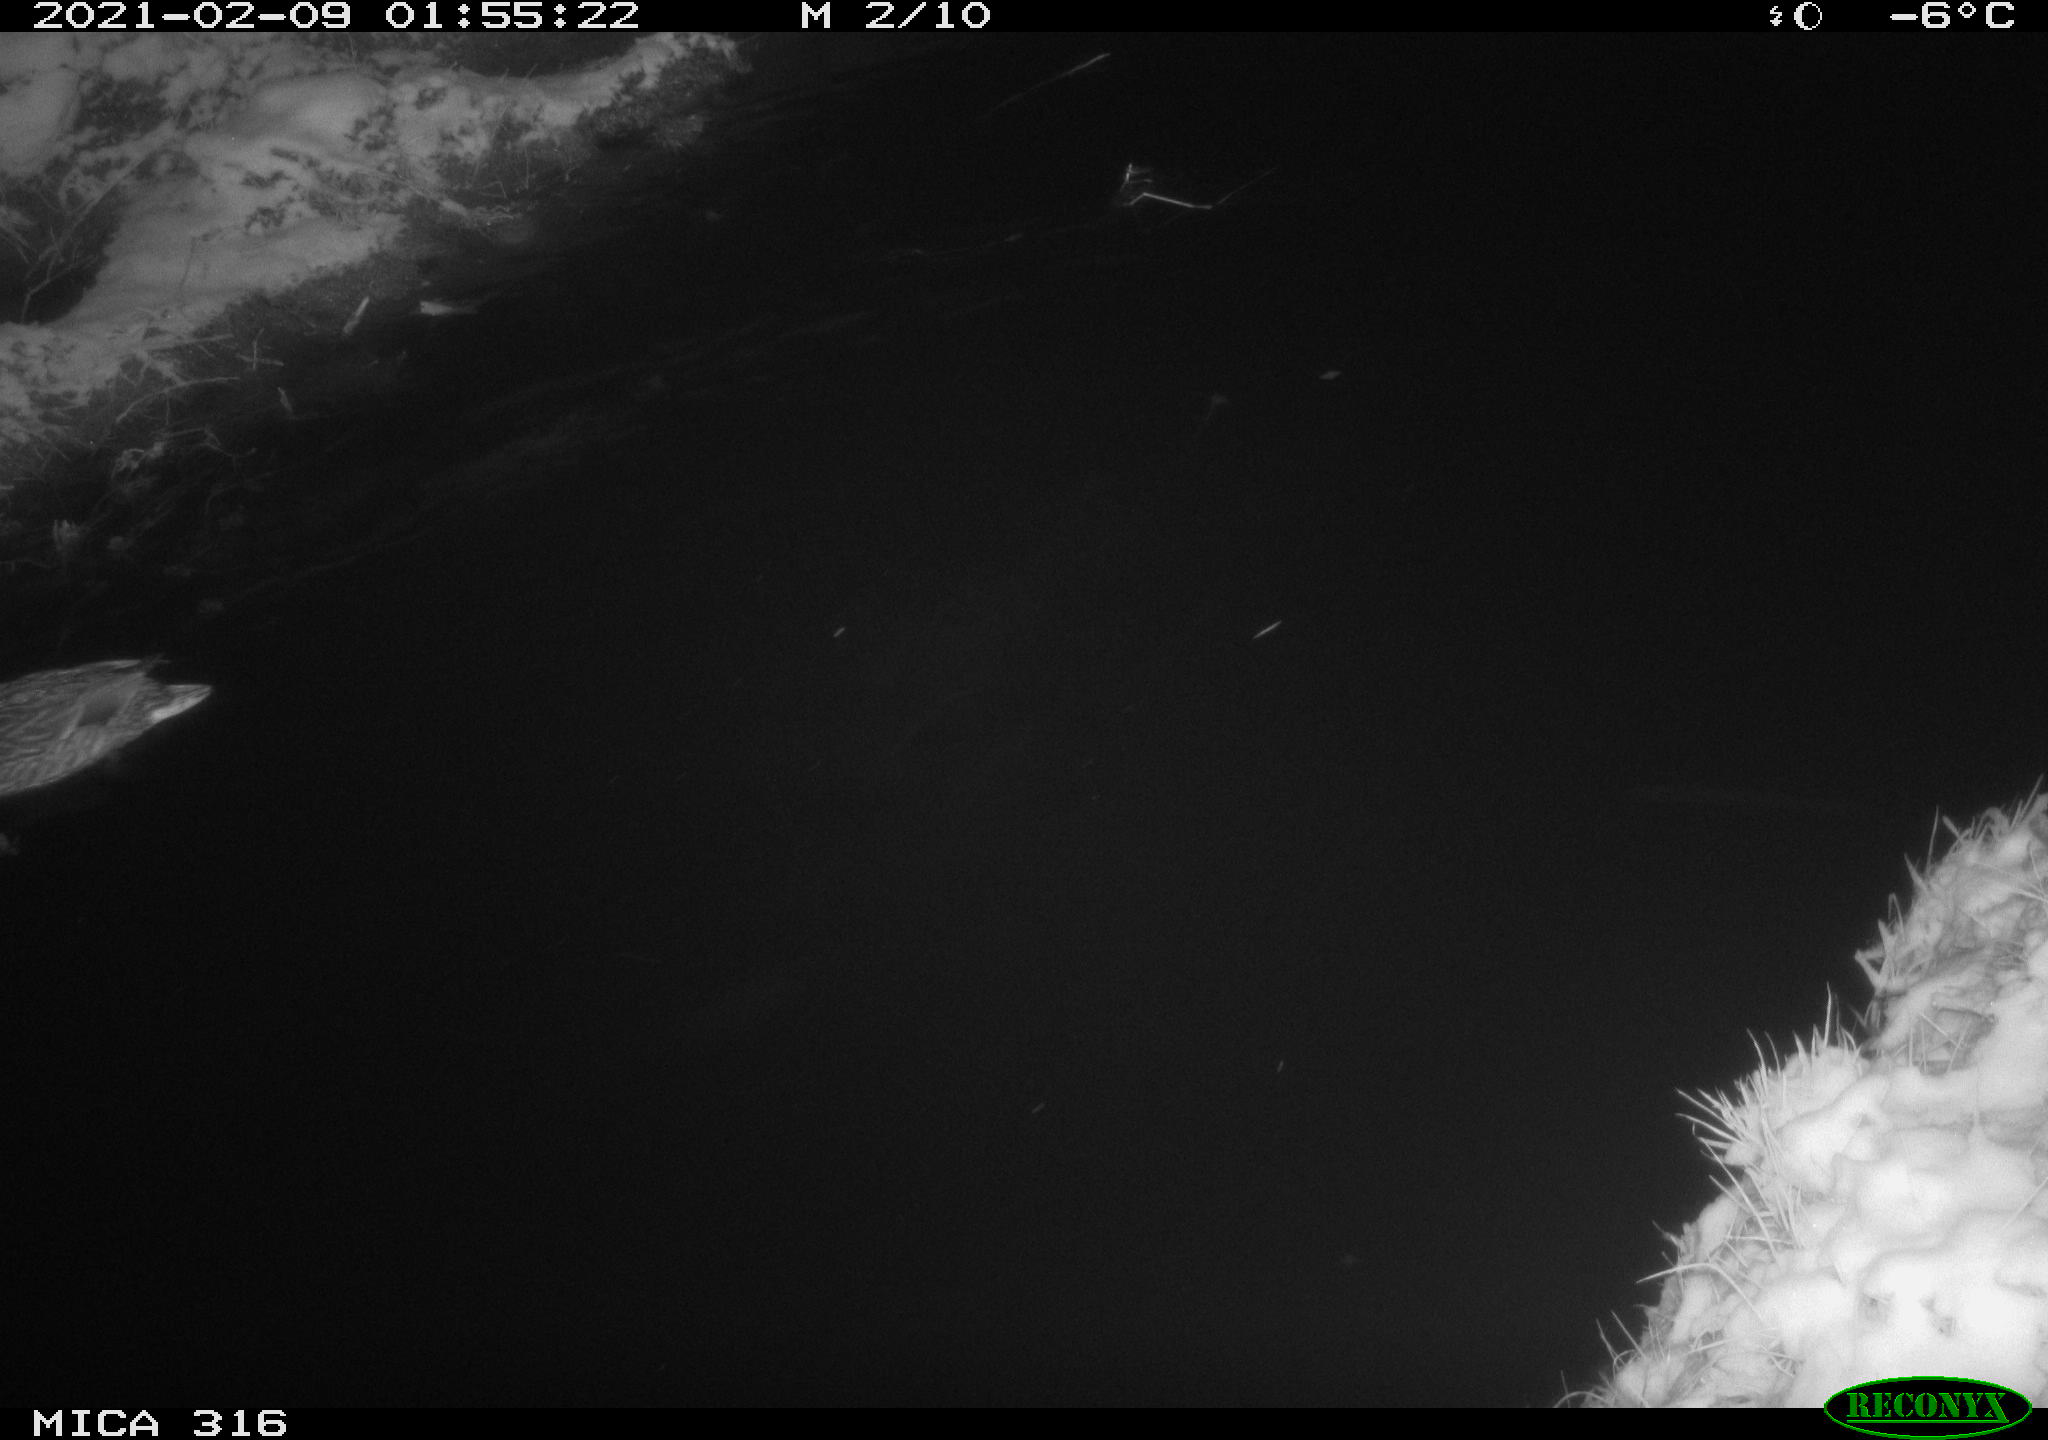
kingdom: Animalia
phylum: Chordata
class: Aves
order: Anseriformes
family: Anatidae
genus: Anas
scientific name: Anas platyrhynchos
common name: Mallard
